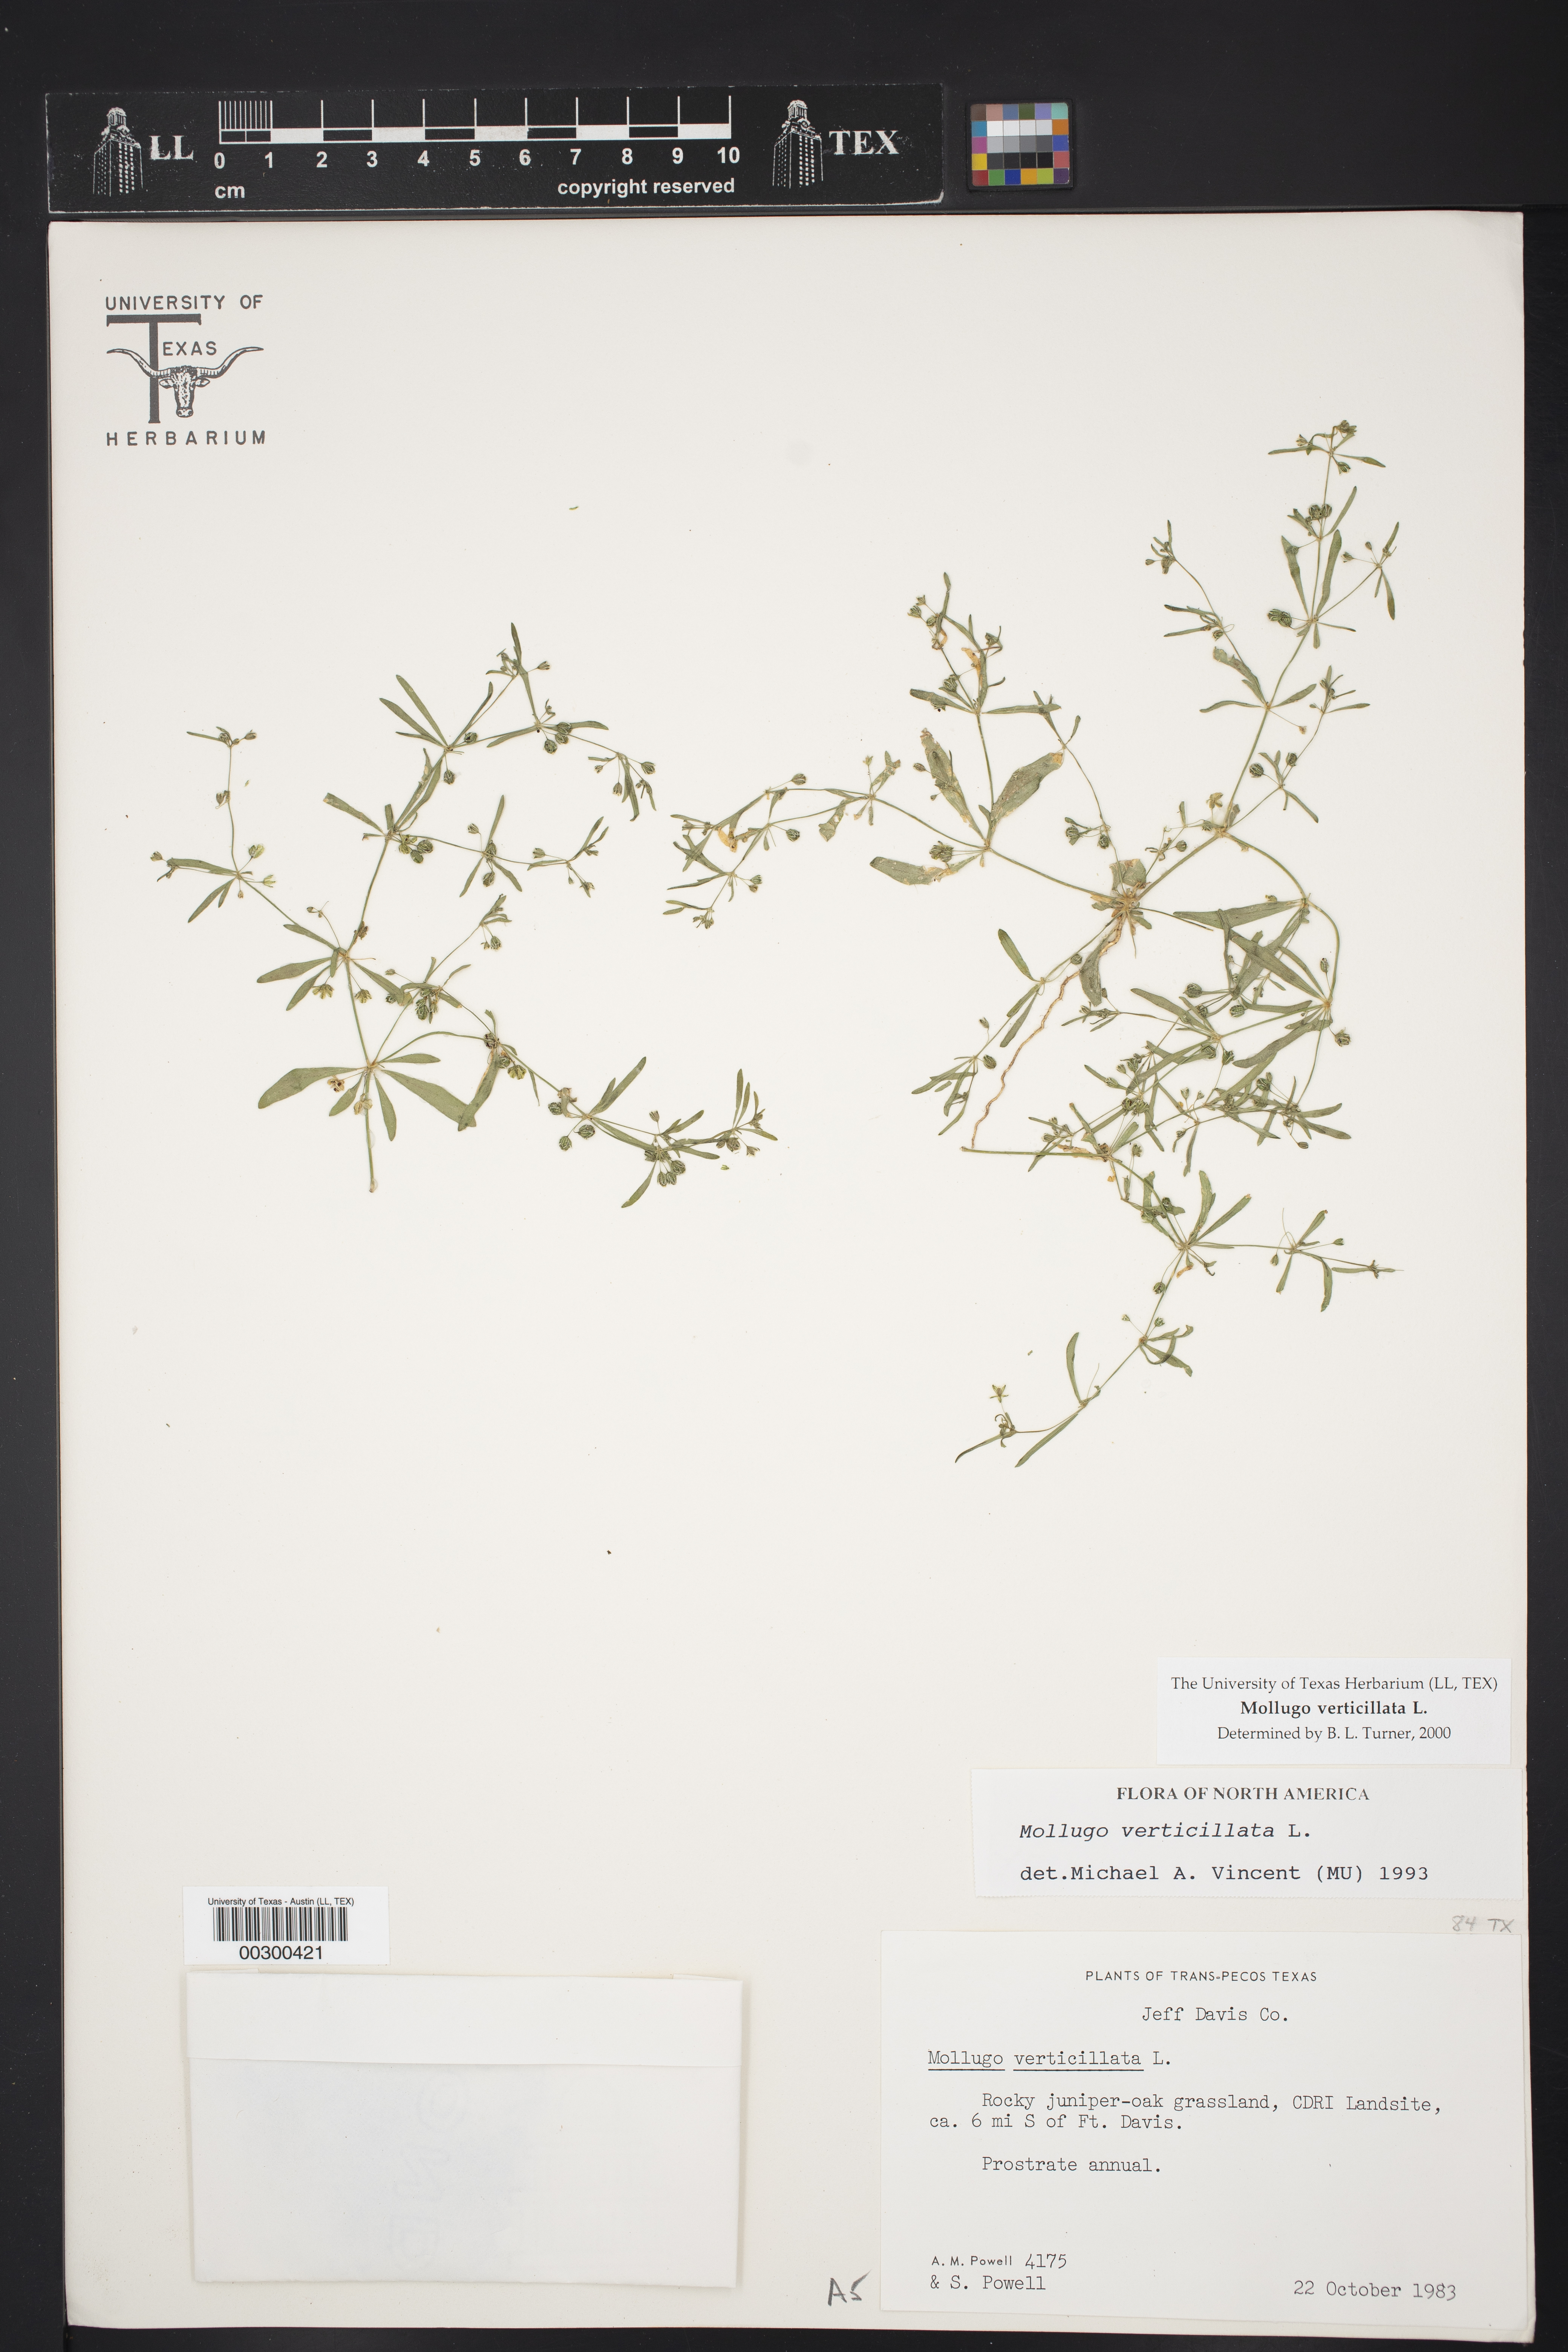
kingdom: Plantae
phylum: Tracheophyta
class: Magnoliopsida
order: Caryophyllales
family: Molluginaceae
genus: Mollugo
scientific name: Mollugo verticillata
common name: Green carpetweed
